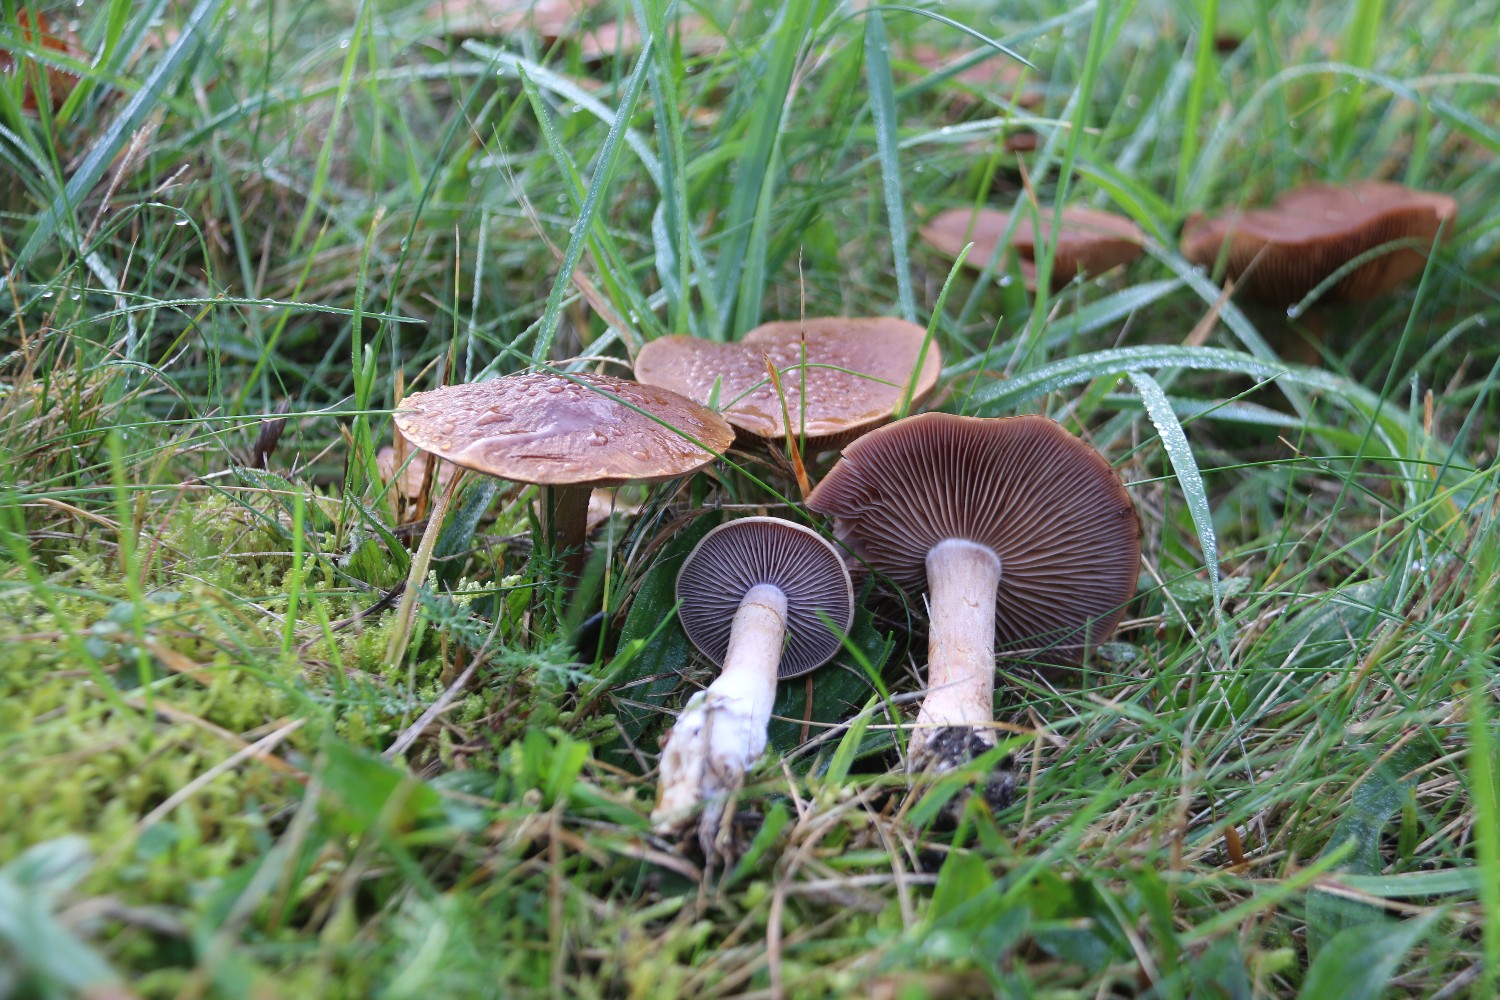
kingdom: Fungi
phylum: Basidiomycota
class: Agaricomycetes
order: Agaricales
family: Cortinariaceae
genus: Cortinarius
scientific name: Cortinarius caninus
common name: gran-slørhat
